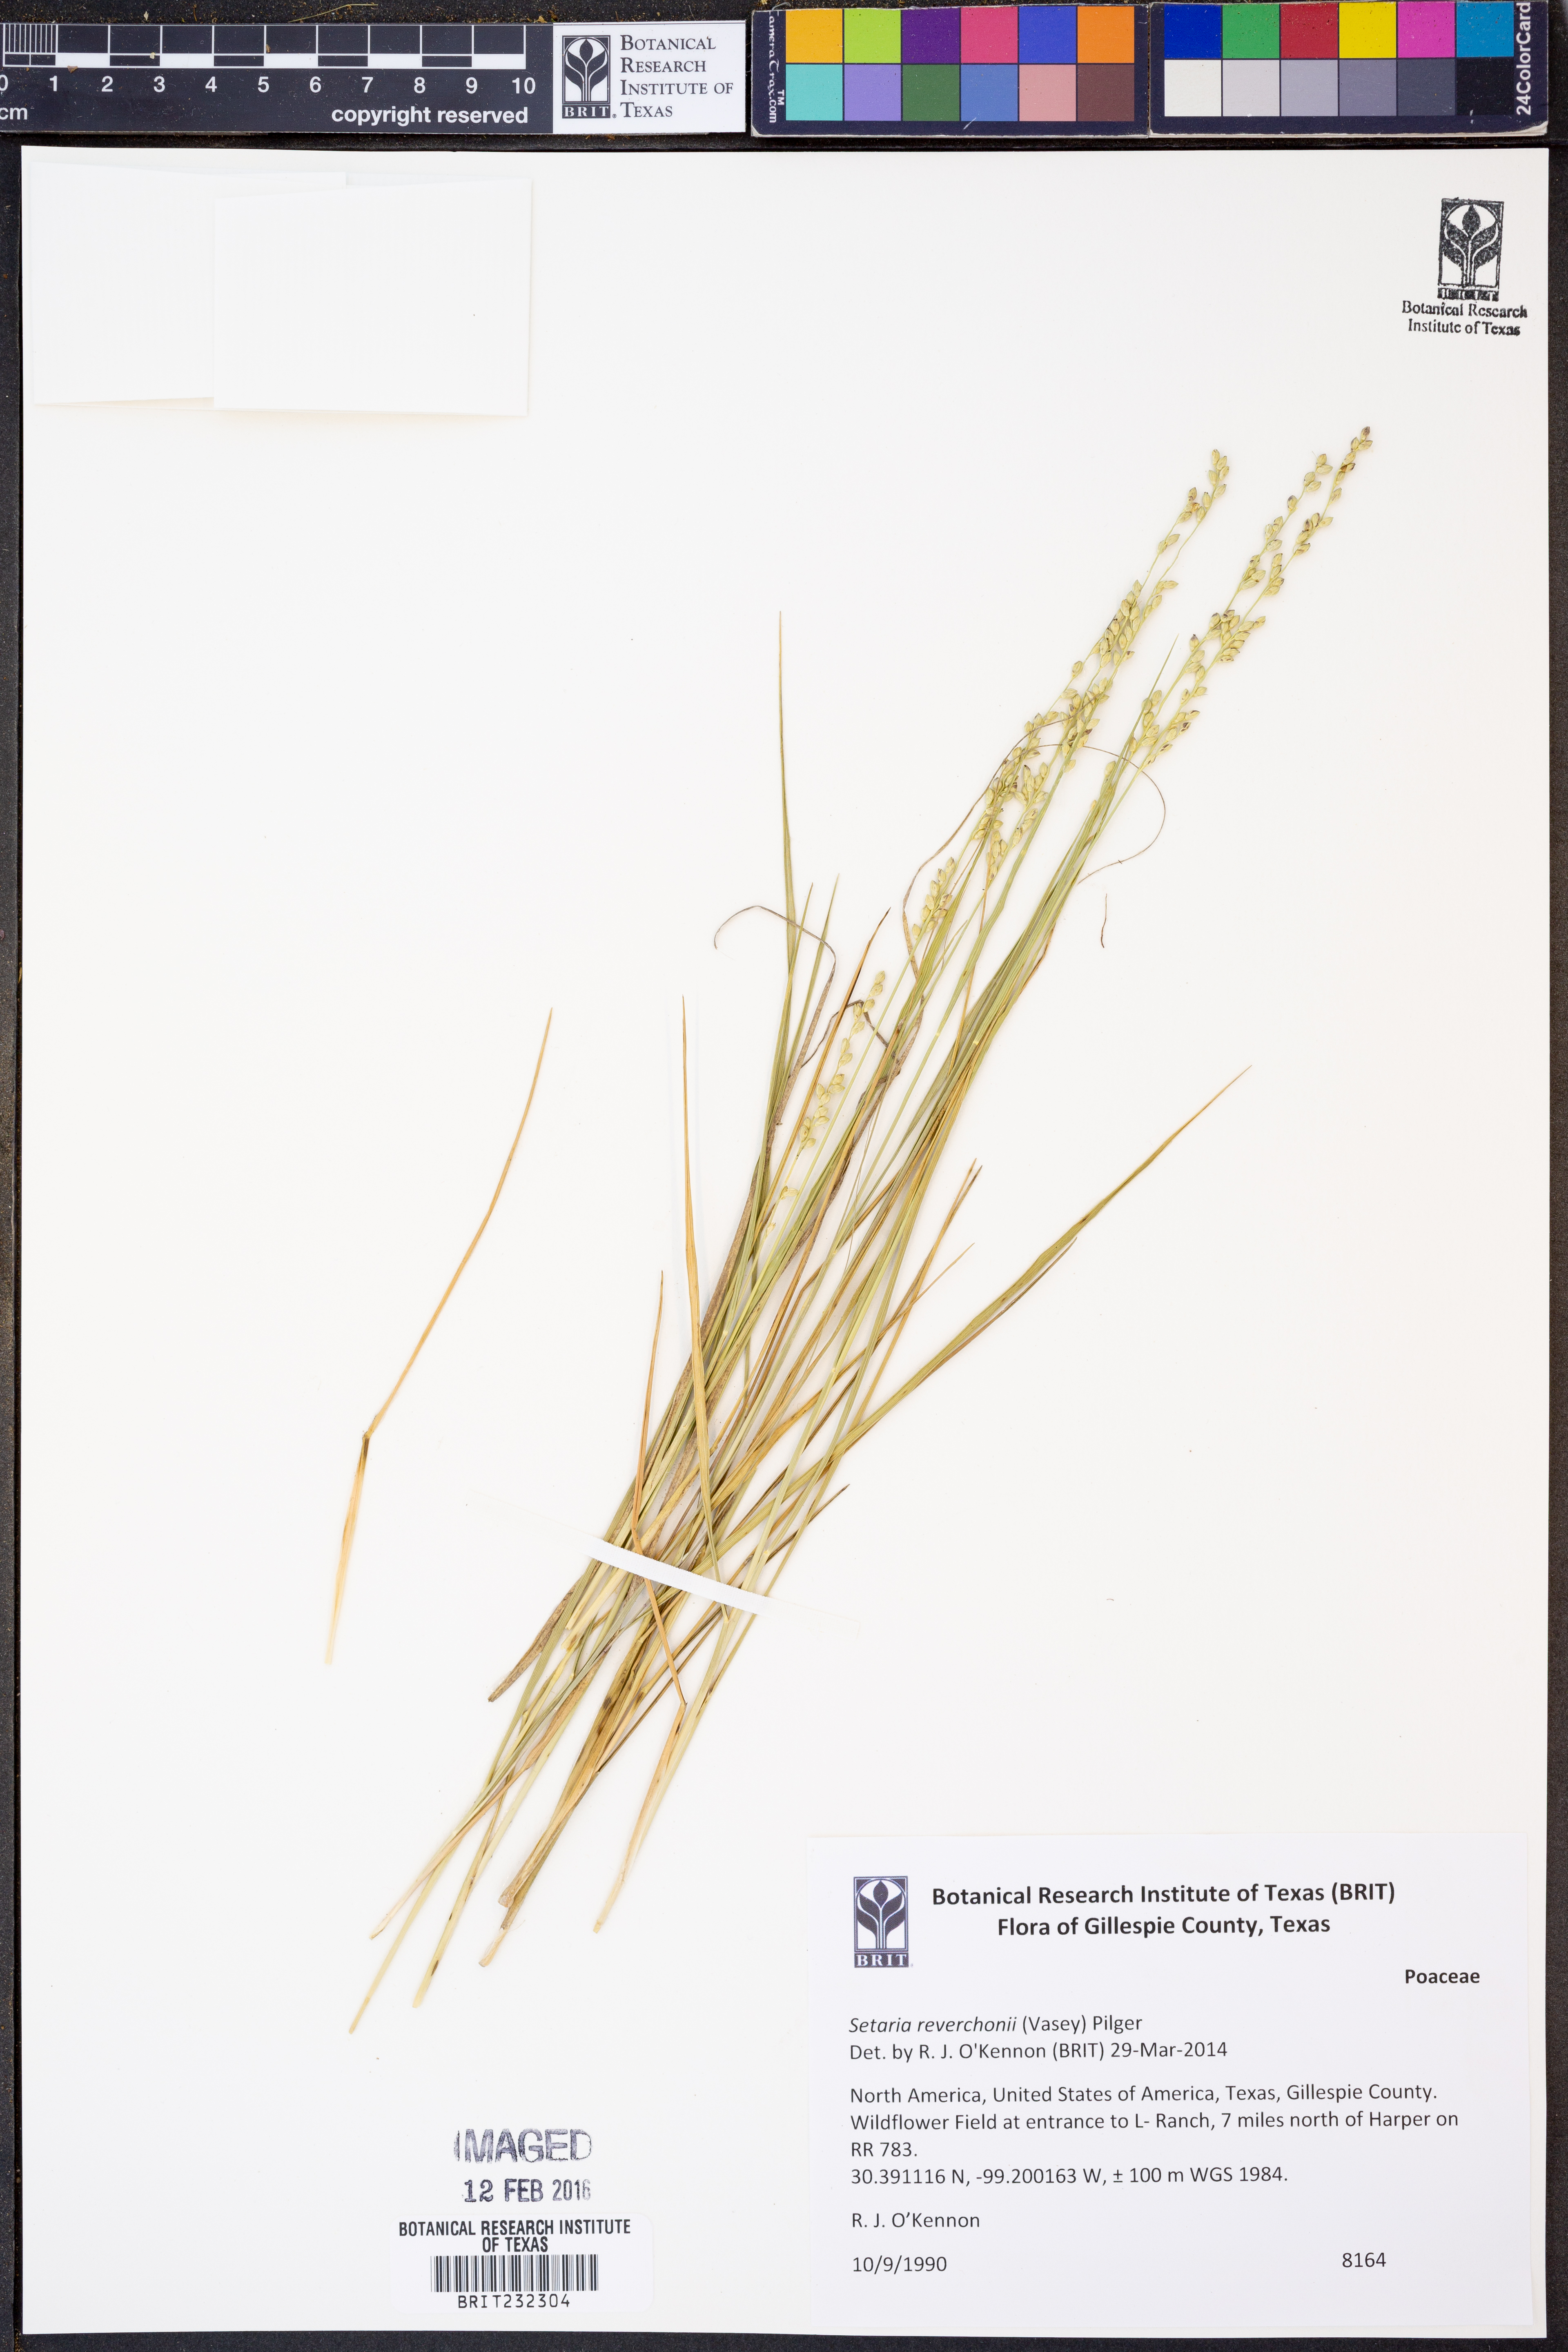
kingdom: Plantae
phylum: Tracheophyta
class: Liliopsida
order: Poales
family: Poaceae
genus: Setaria
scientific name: Setaria reverchonii
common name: Reverchon's bristle grass
